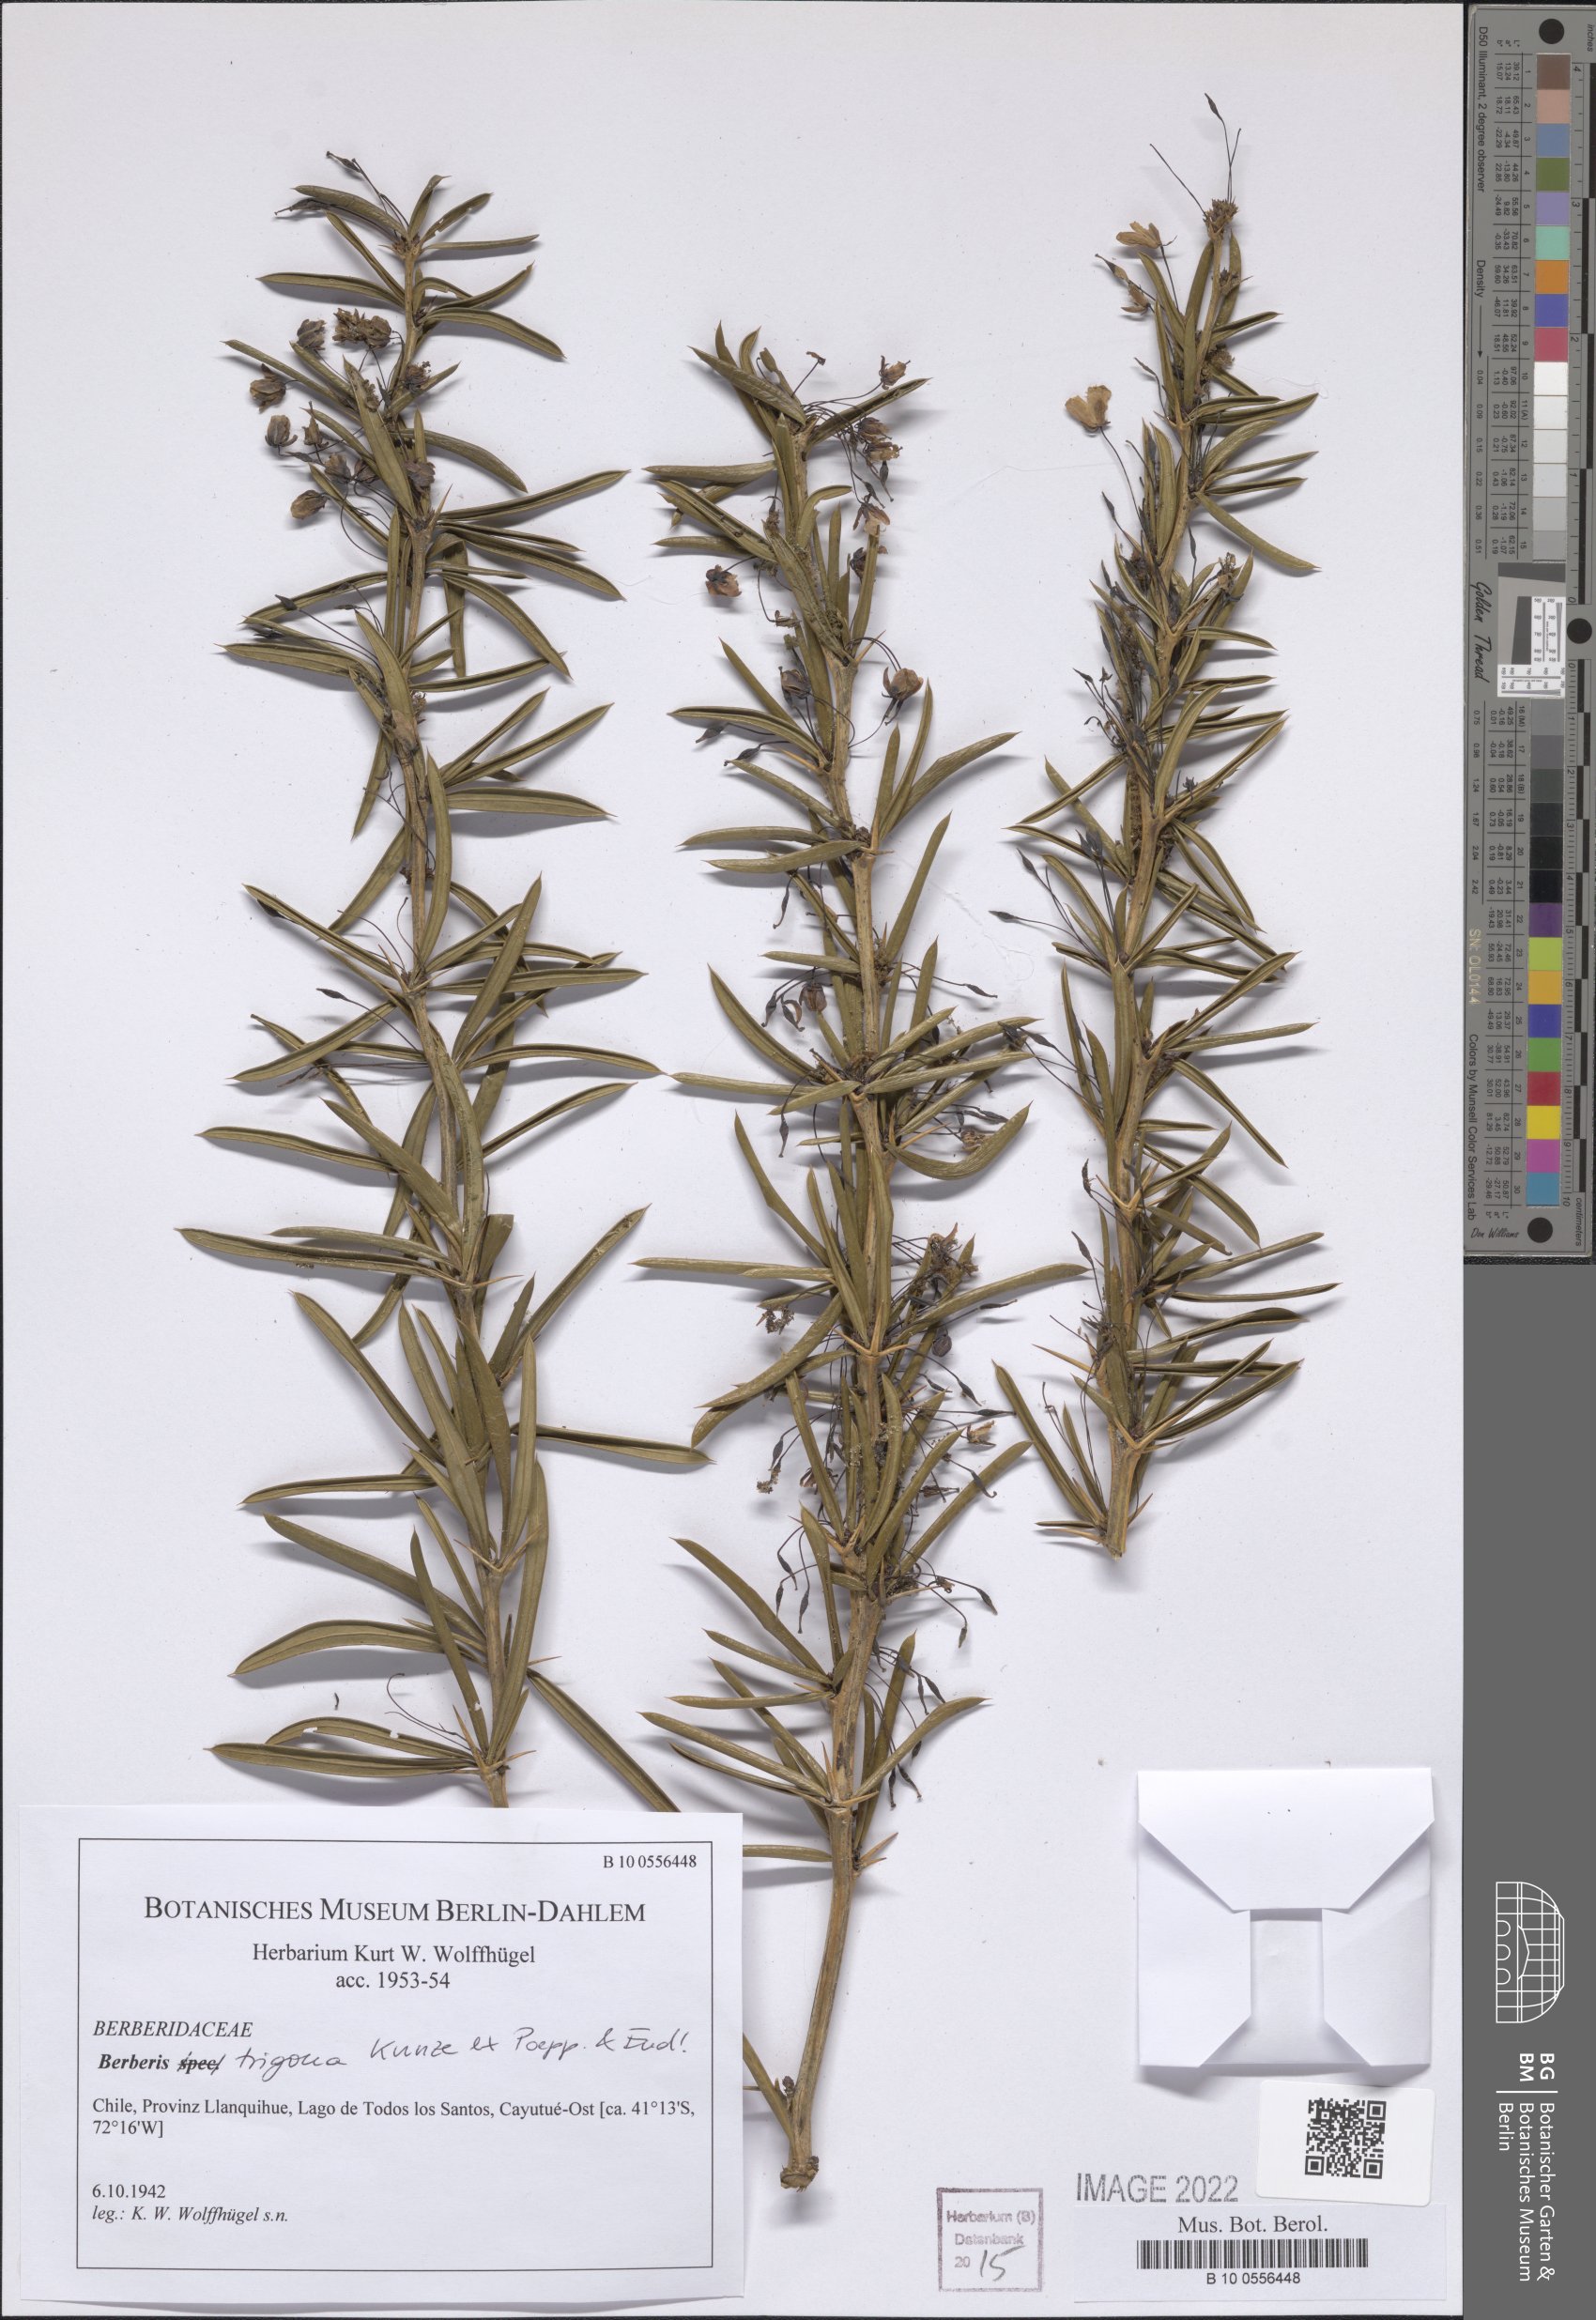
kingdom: Plantae
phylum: Tracheophyta
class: Magnoliopsida
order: Ranunculales
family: Berberidaceae
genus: Berberis
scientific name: Berberis trigona
